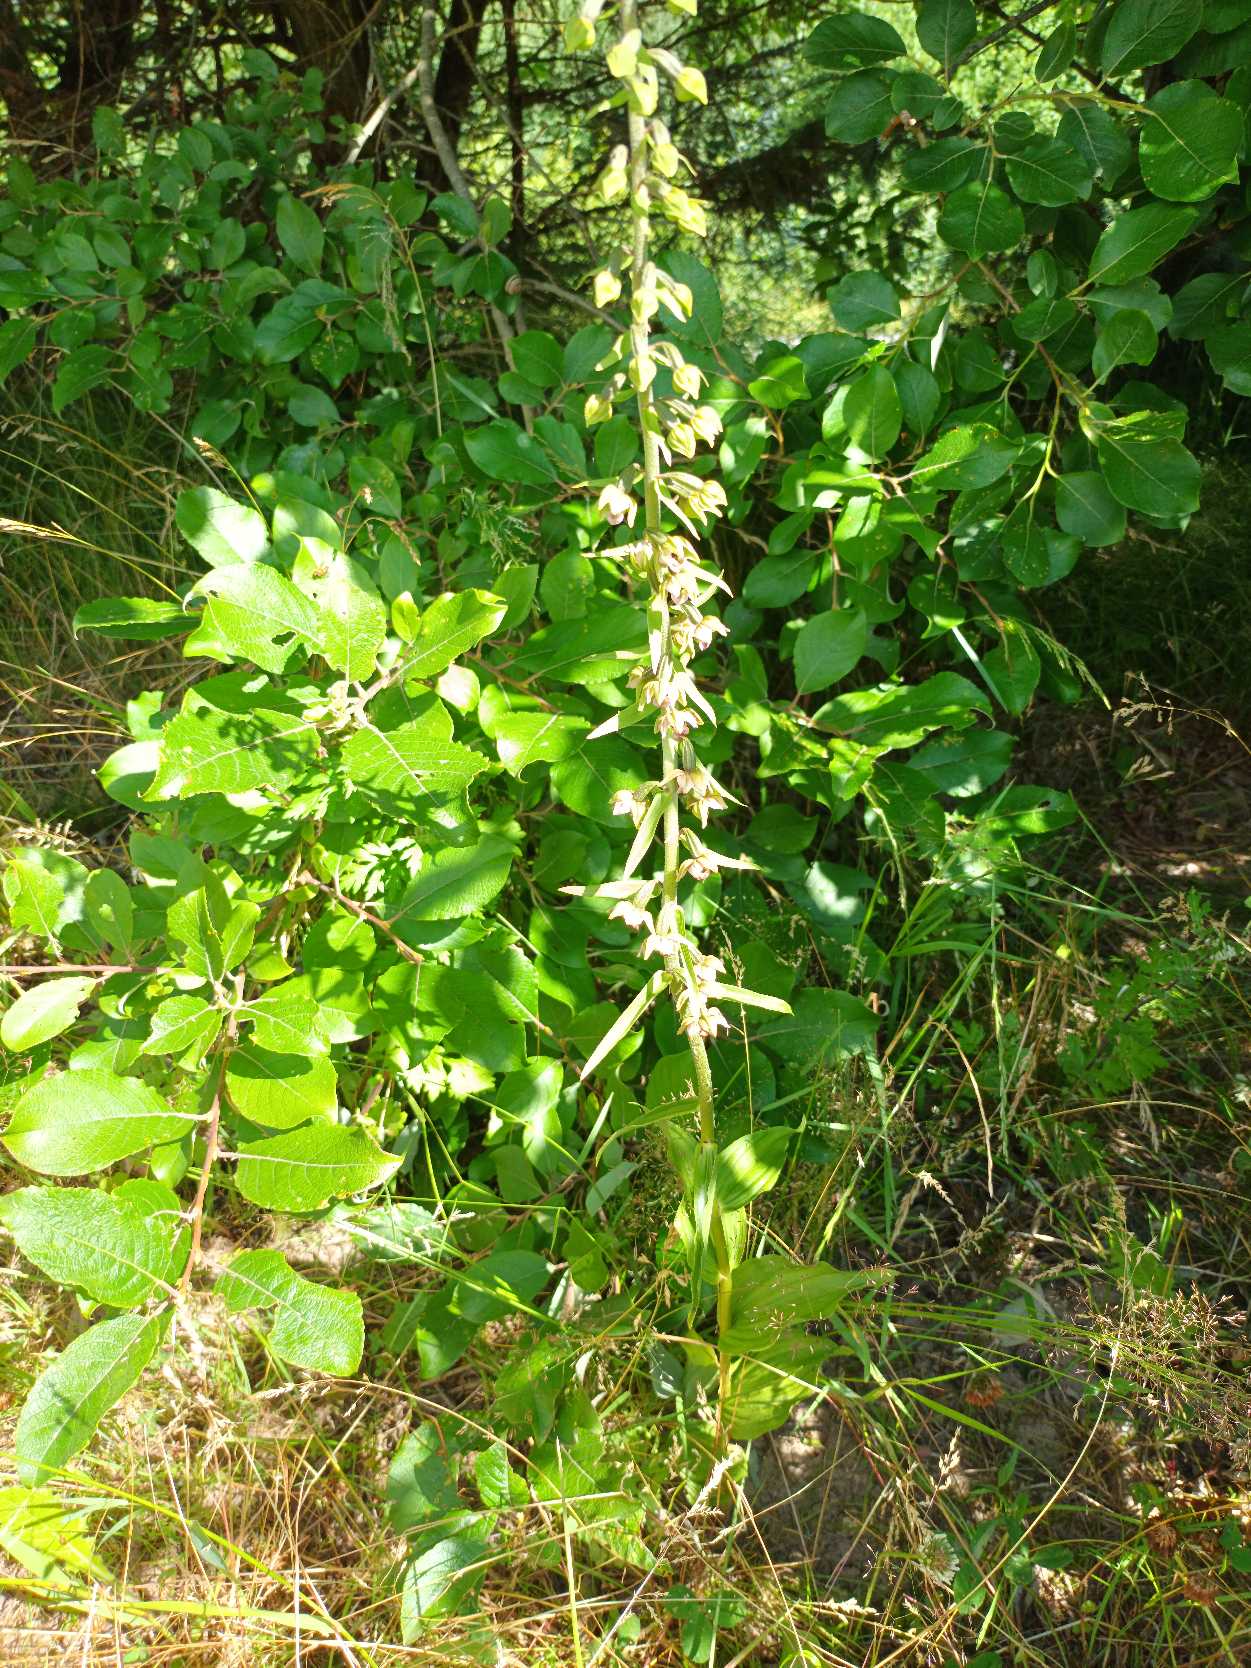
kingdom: Plantae
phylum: Tracheophyta
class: Liliopsida
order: Asparagales
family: Orchidaceae
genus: Epipactis
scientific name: Epipactis helleborine
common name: Skov-hullæbe
